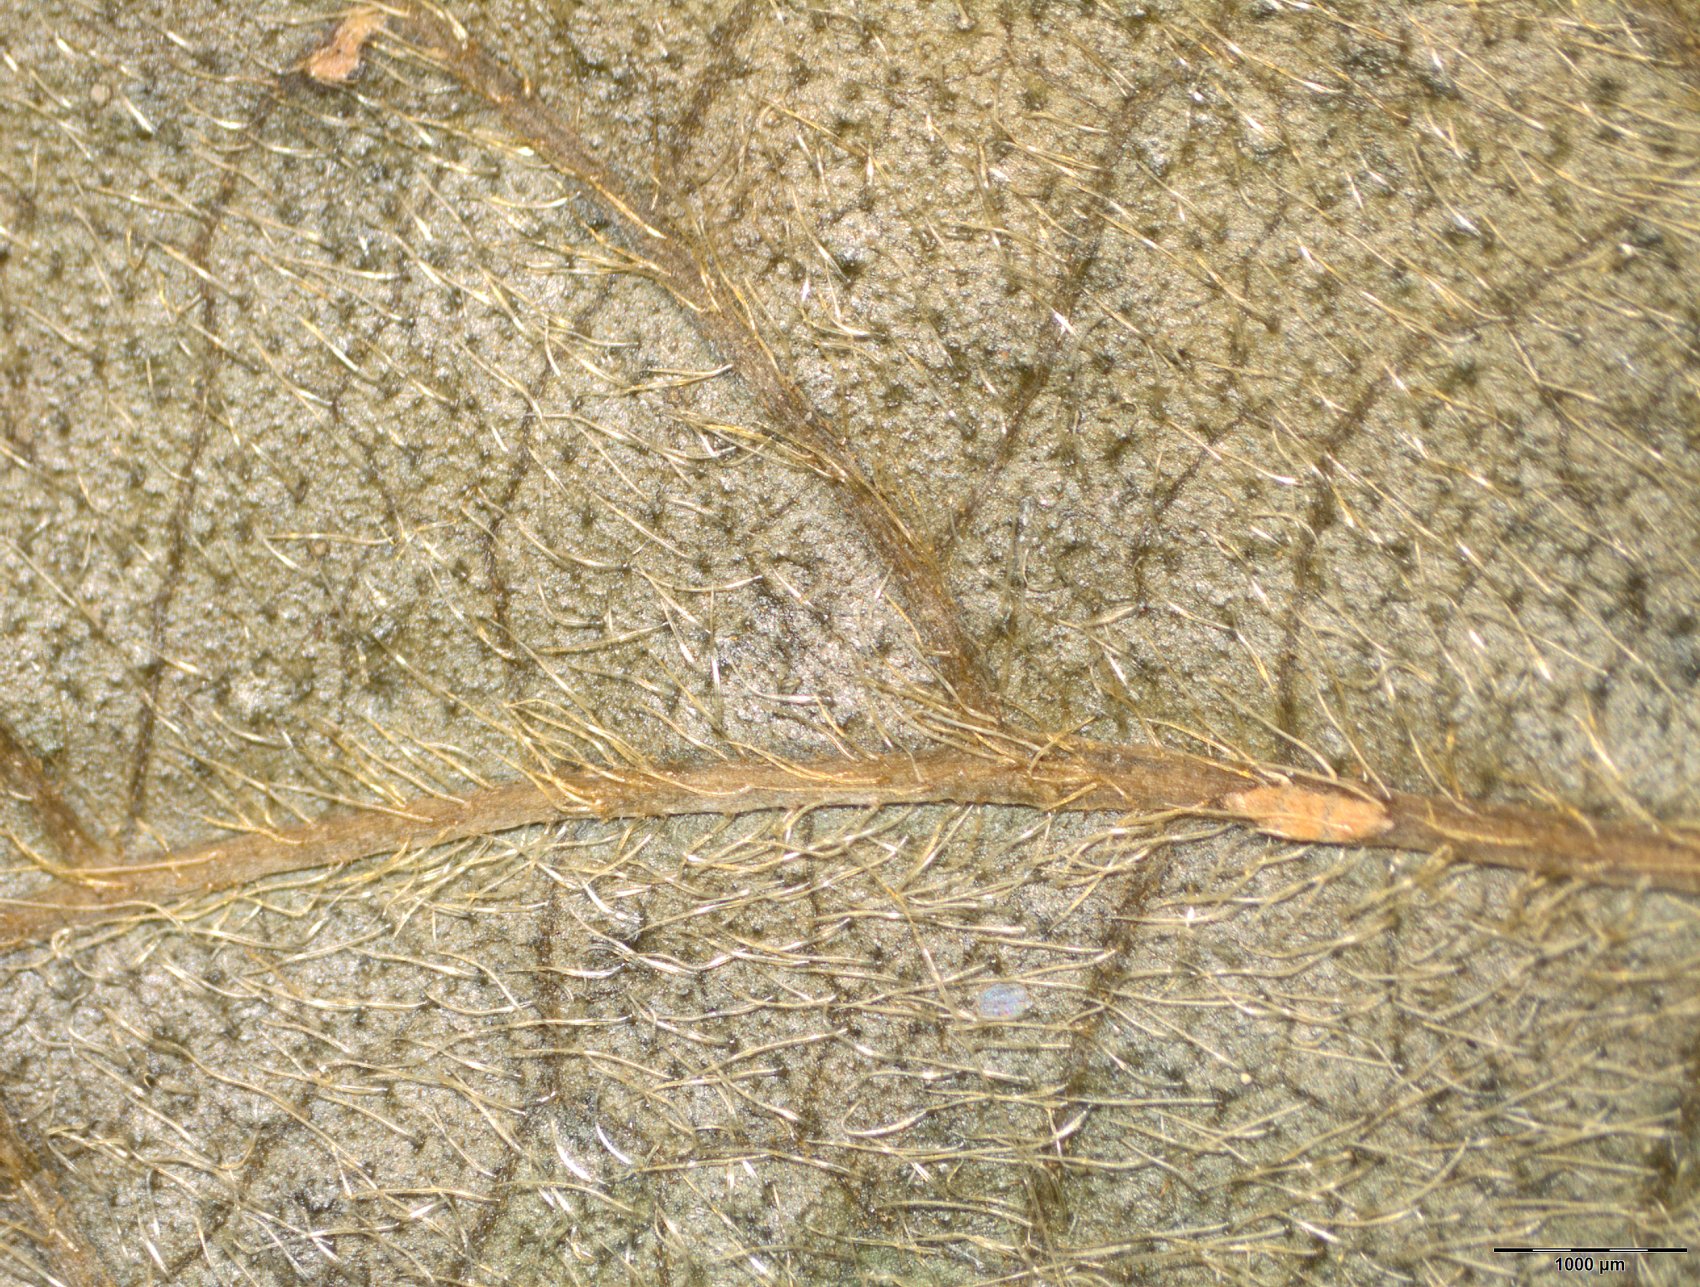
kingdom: Plantae
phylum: Tracheophyta
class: Magnoliopsida
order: Rosales
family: Cannabaceae
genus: Celtis
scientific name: Celtis iguanaea
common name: Iguana hackberry
